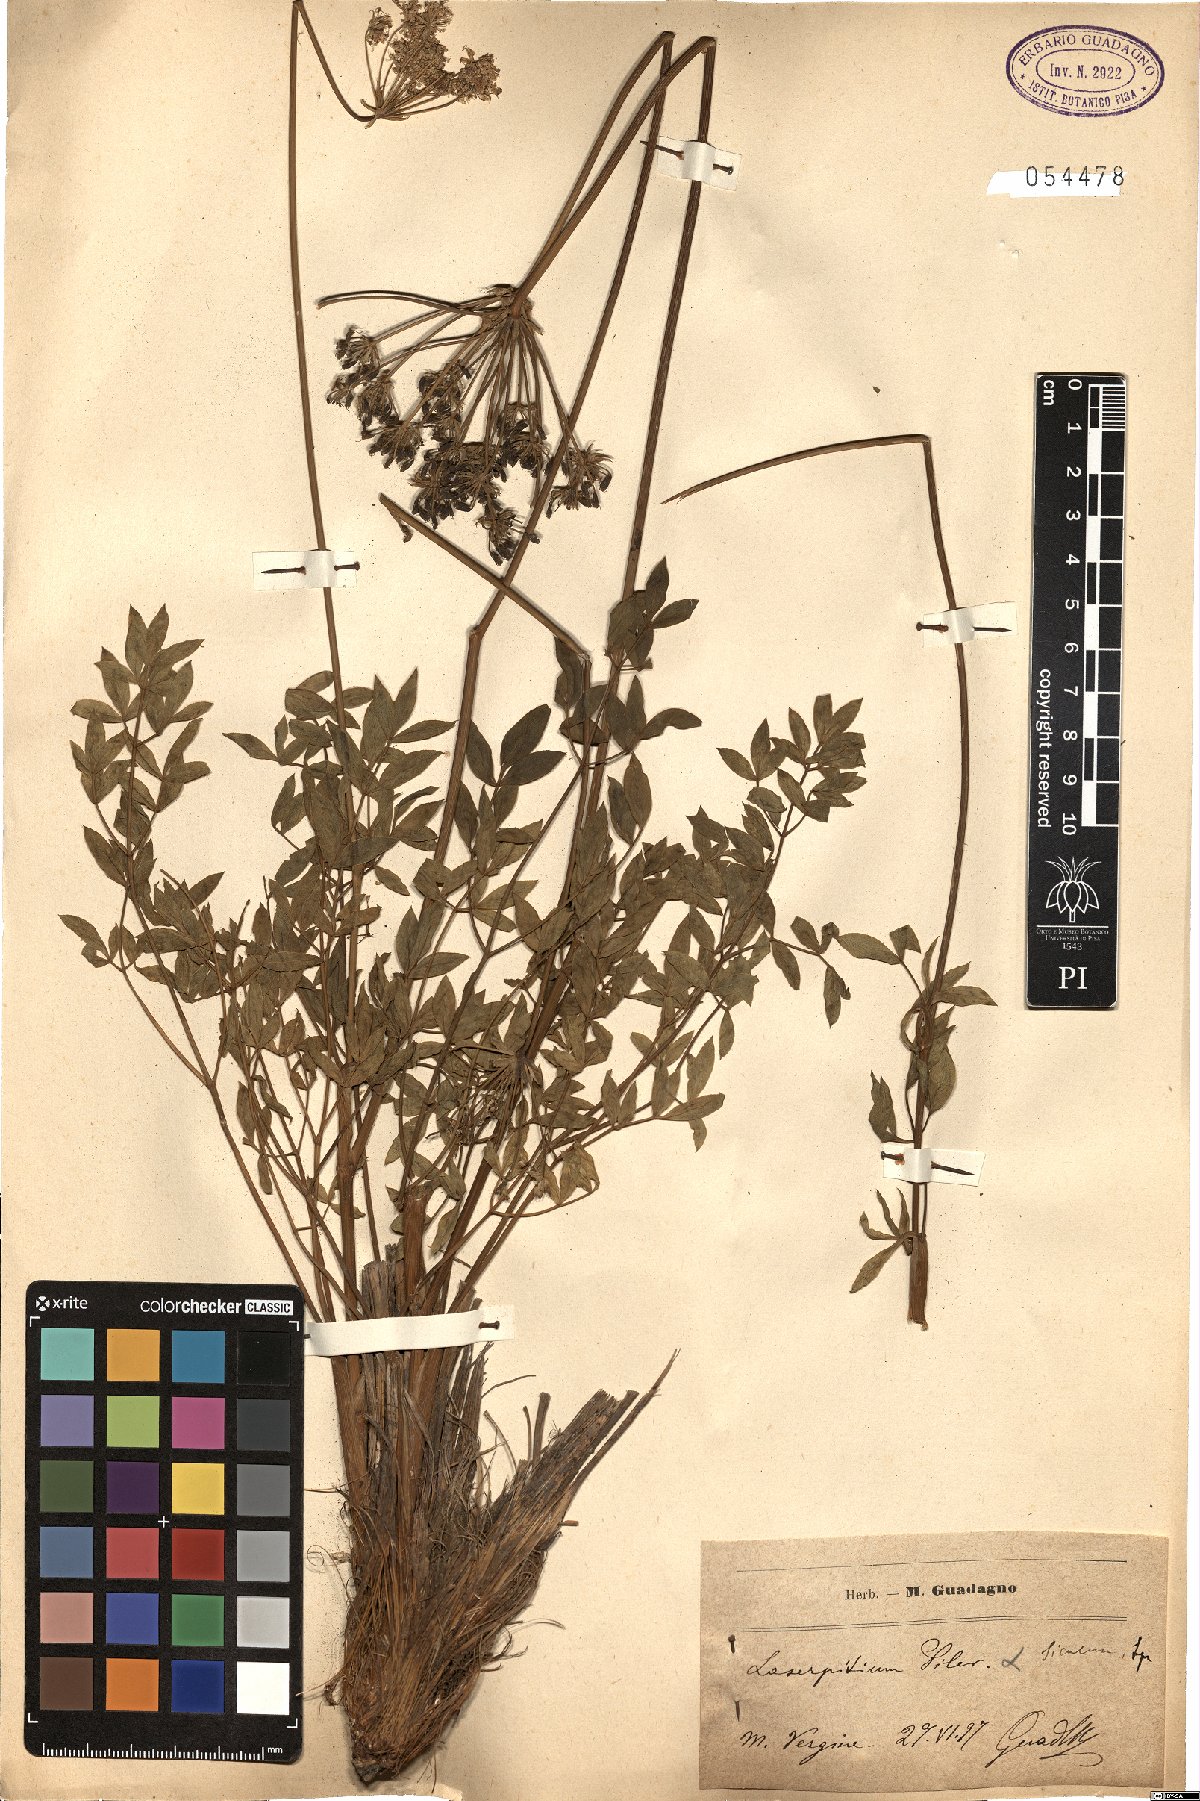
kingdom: Plantae
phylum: Tracheophyta
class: Magnoliopsida
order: Apiales
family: Apiaceae
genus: Siler
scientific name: Siler montanum
